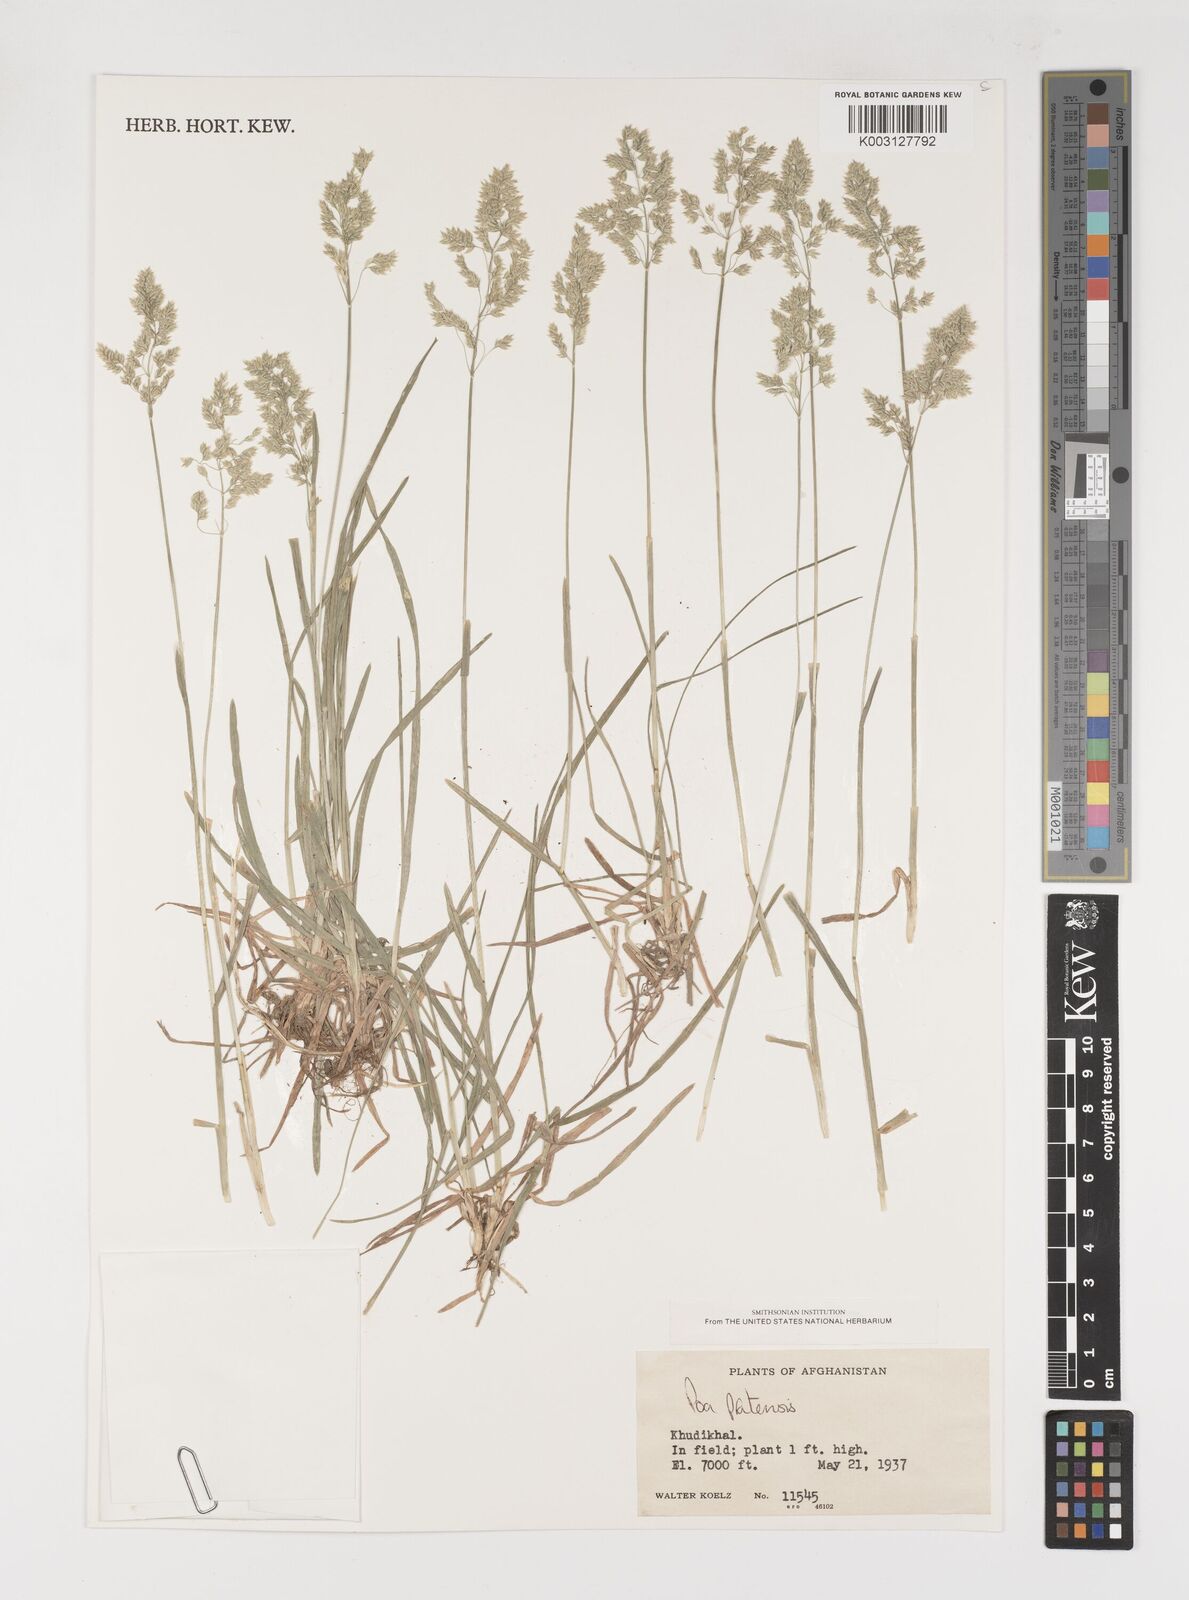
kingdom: Plantae
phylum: Tracheophyta
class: Liliopsida
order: Poales
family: Poaceae
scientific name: Poaceae
